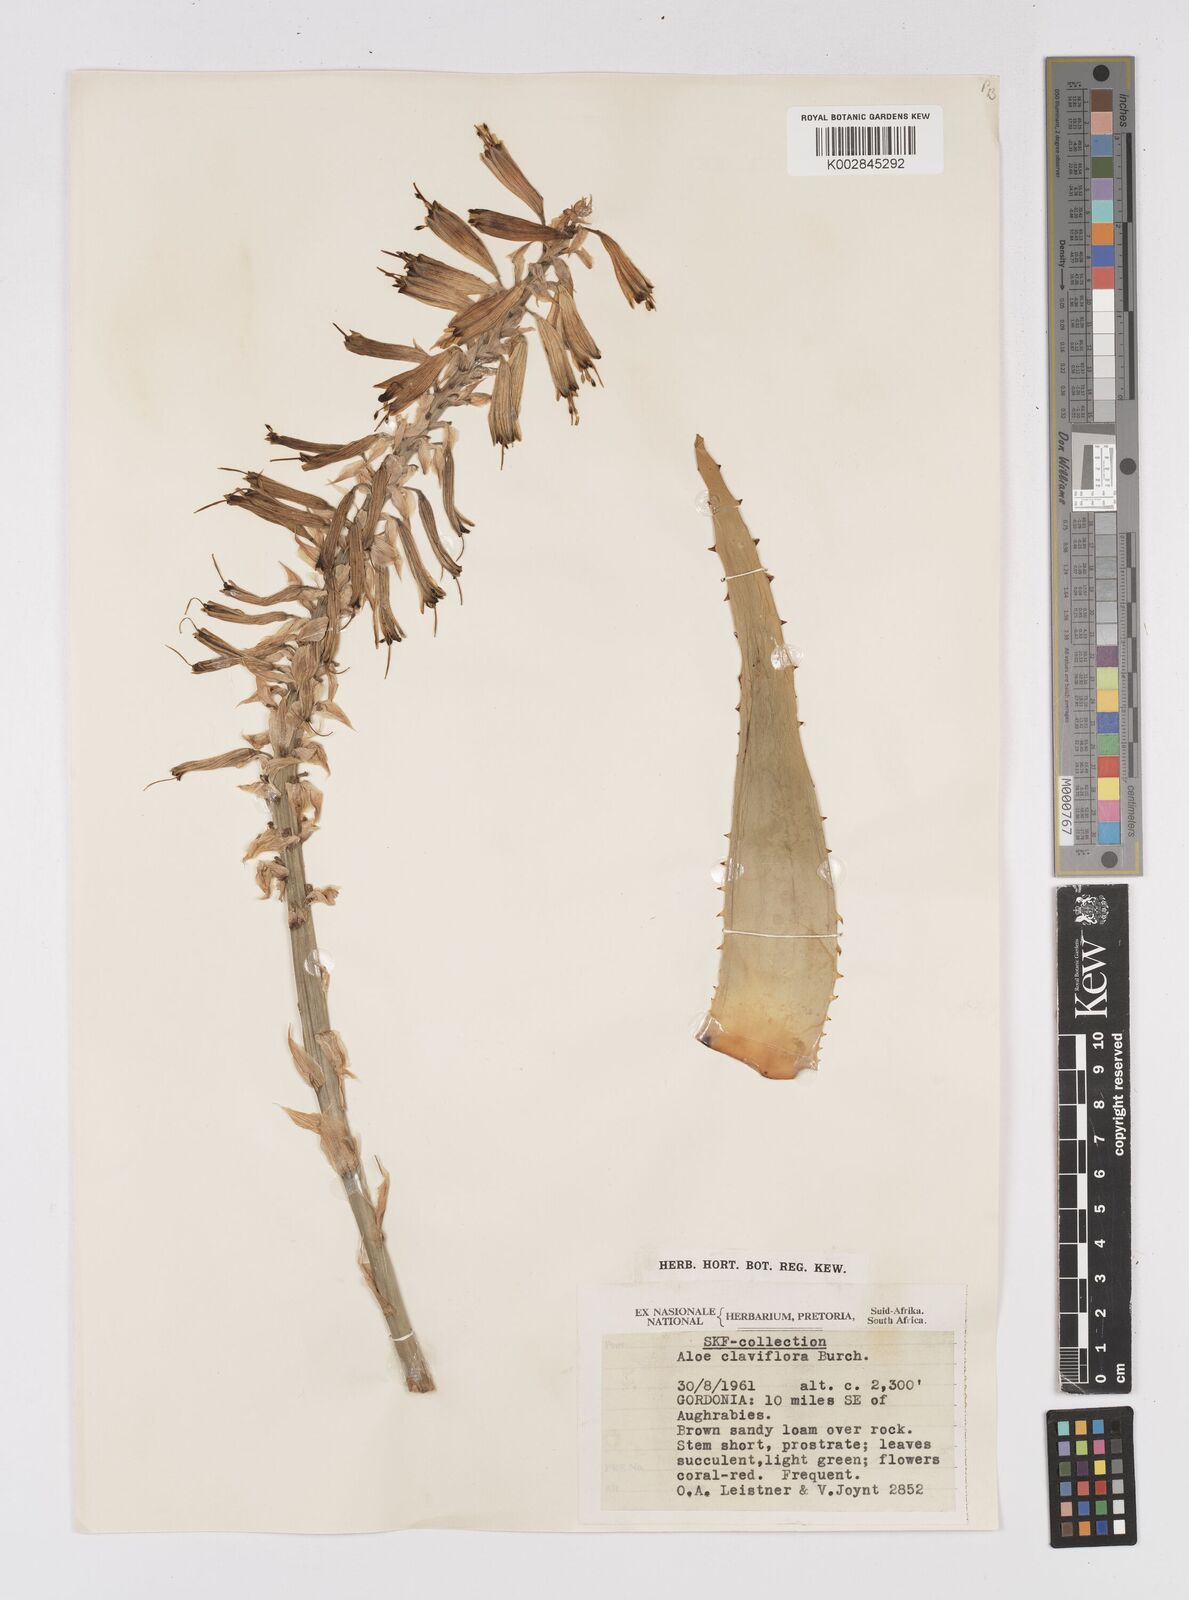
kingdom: Plantae
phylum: Tracheophyta
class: Liliopsida
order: Asparagales
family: Asphodelaceae
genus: Aloe
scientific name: Aloe claviflora
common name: Cannon aloe
